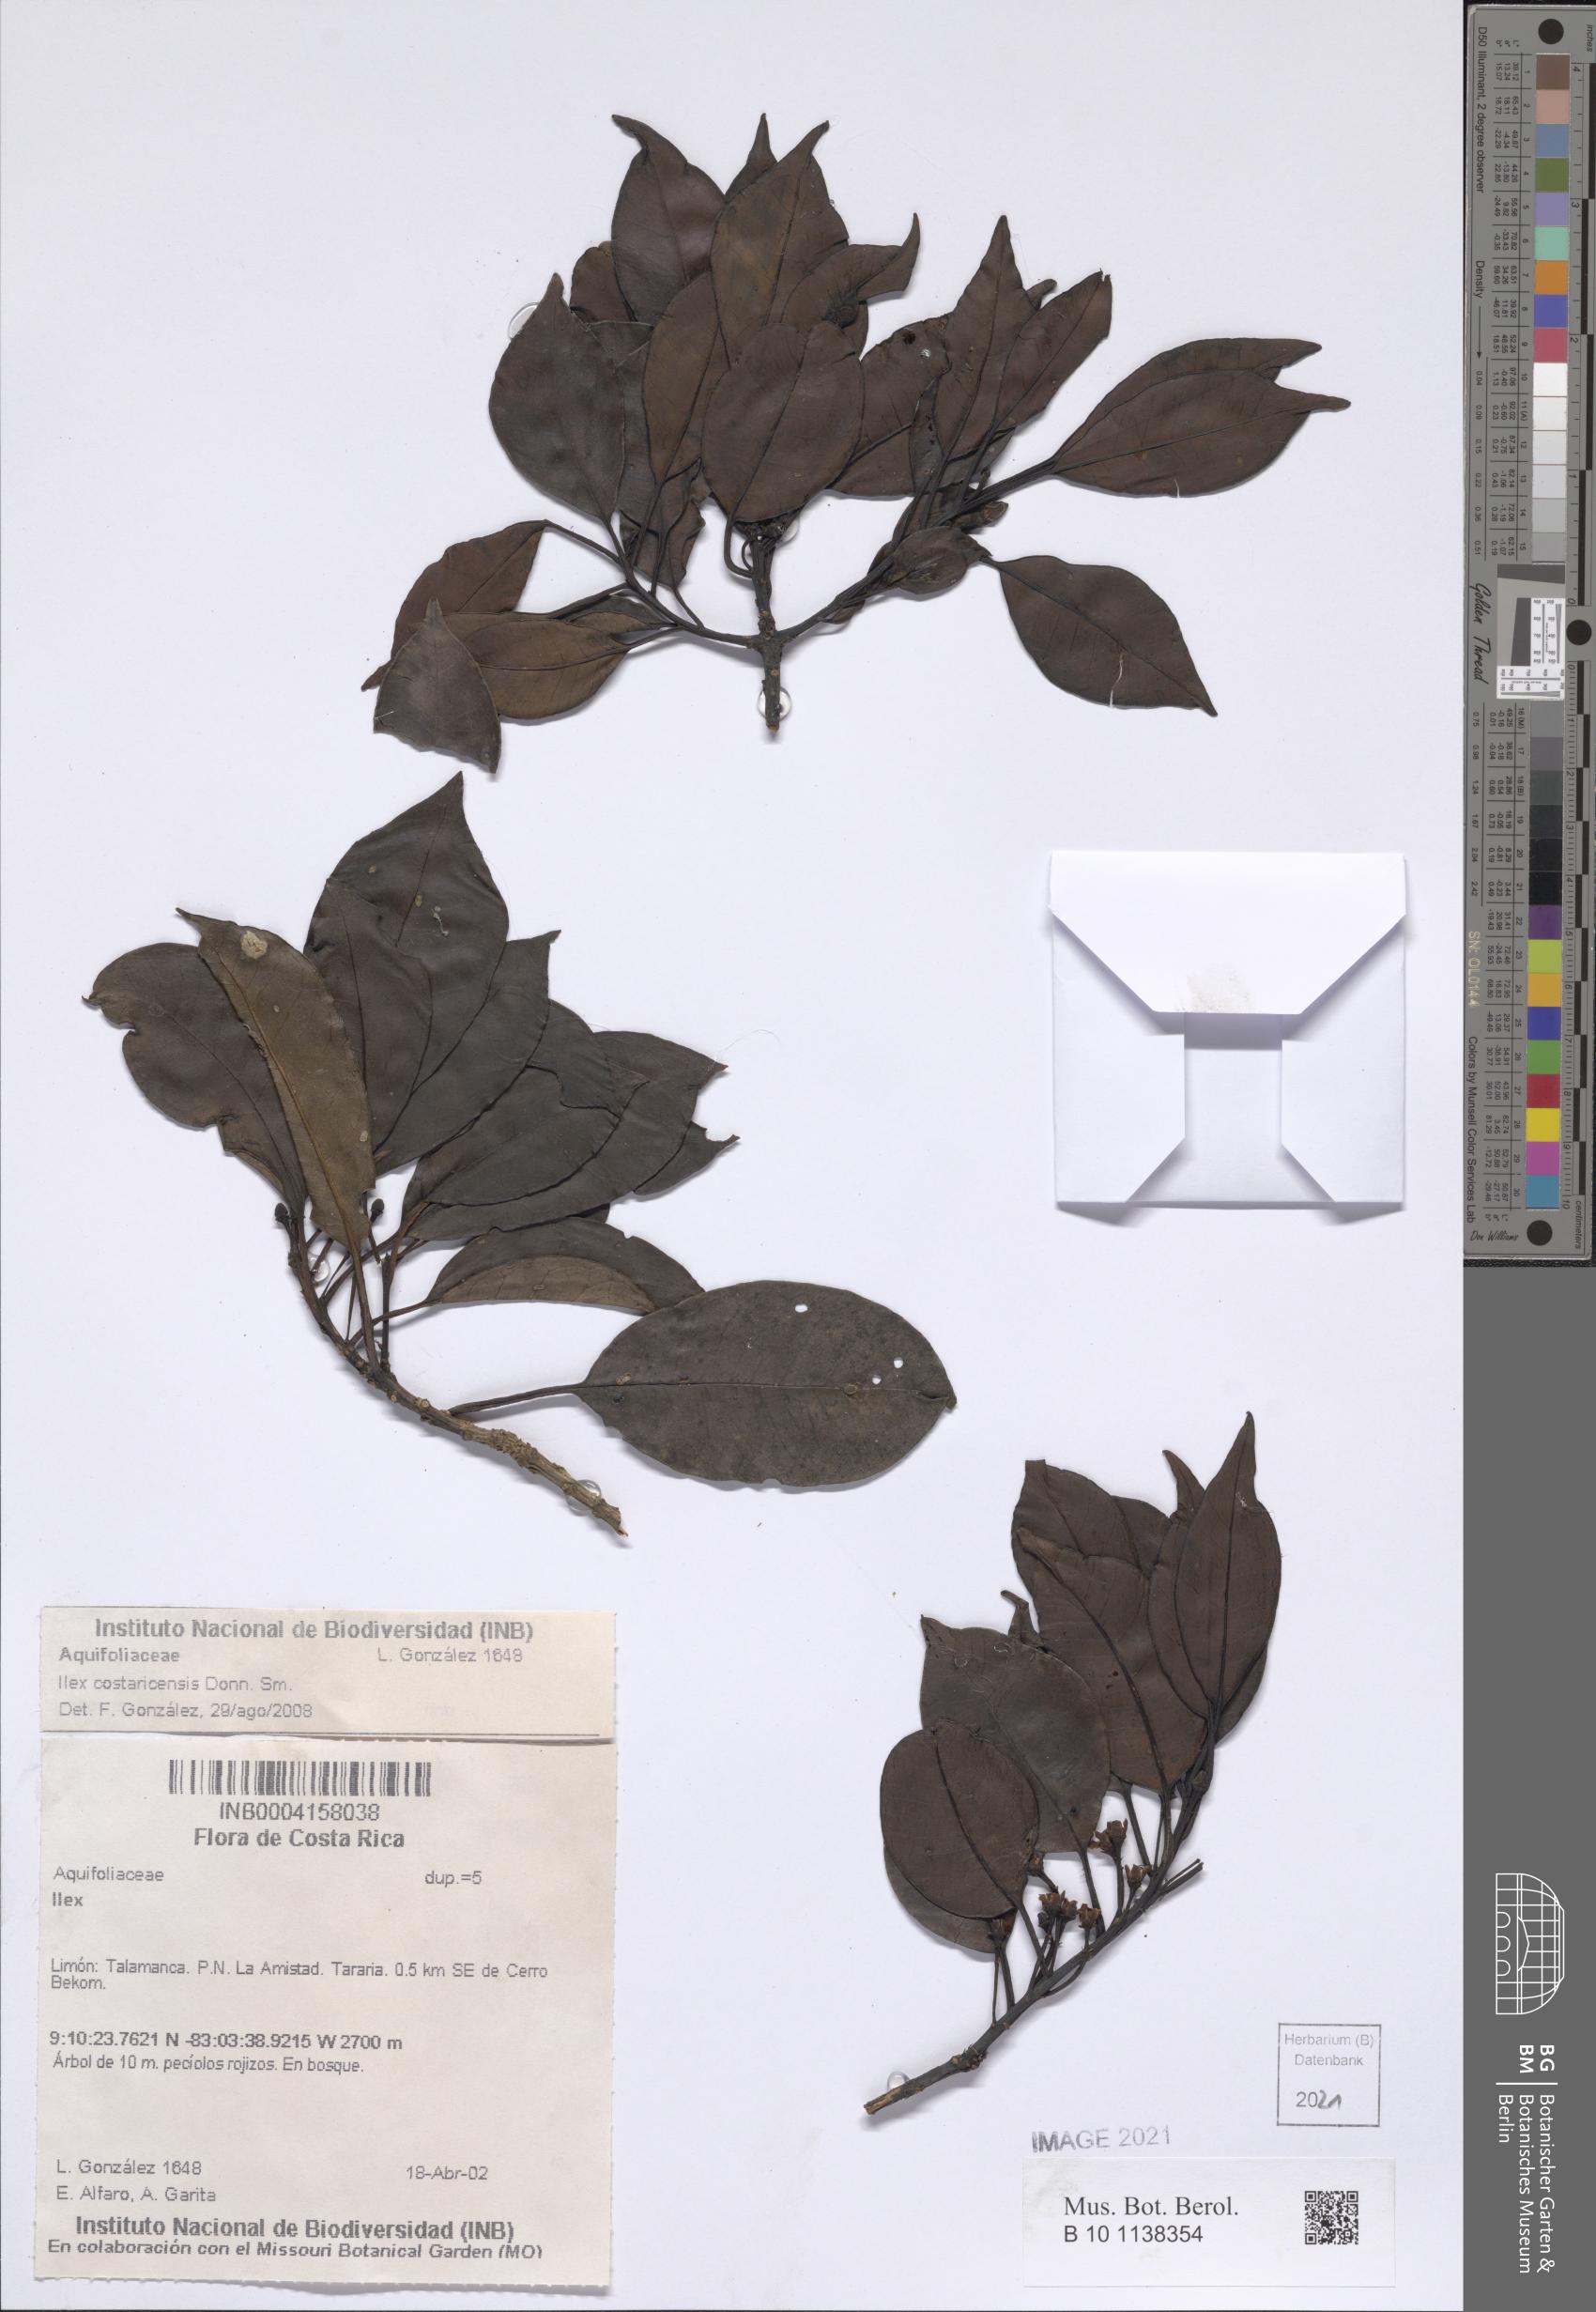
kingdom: Plantae
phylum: Tracheophyta
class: Magnoliopsida
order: Aquifoliales
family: Aquifoliaceae
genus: Ilex
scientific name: Ilex costaricensis
